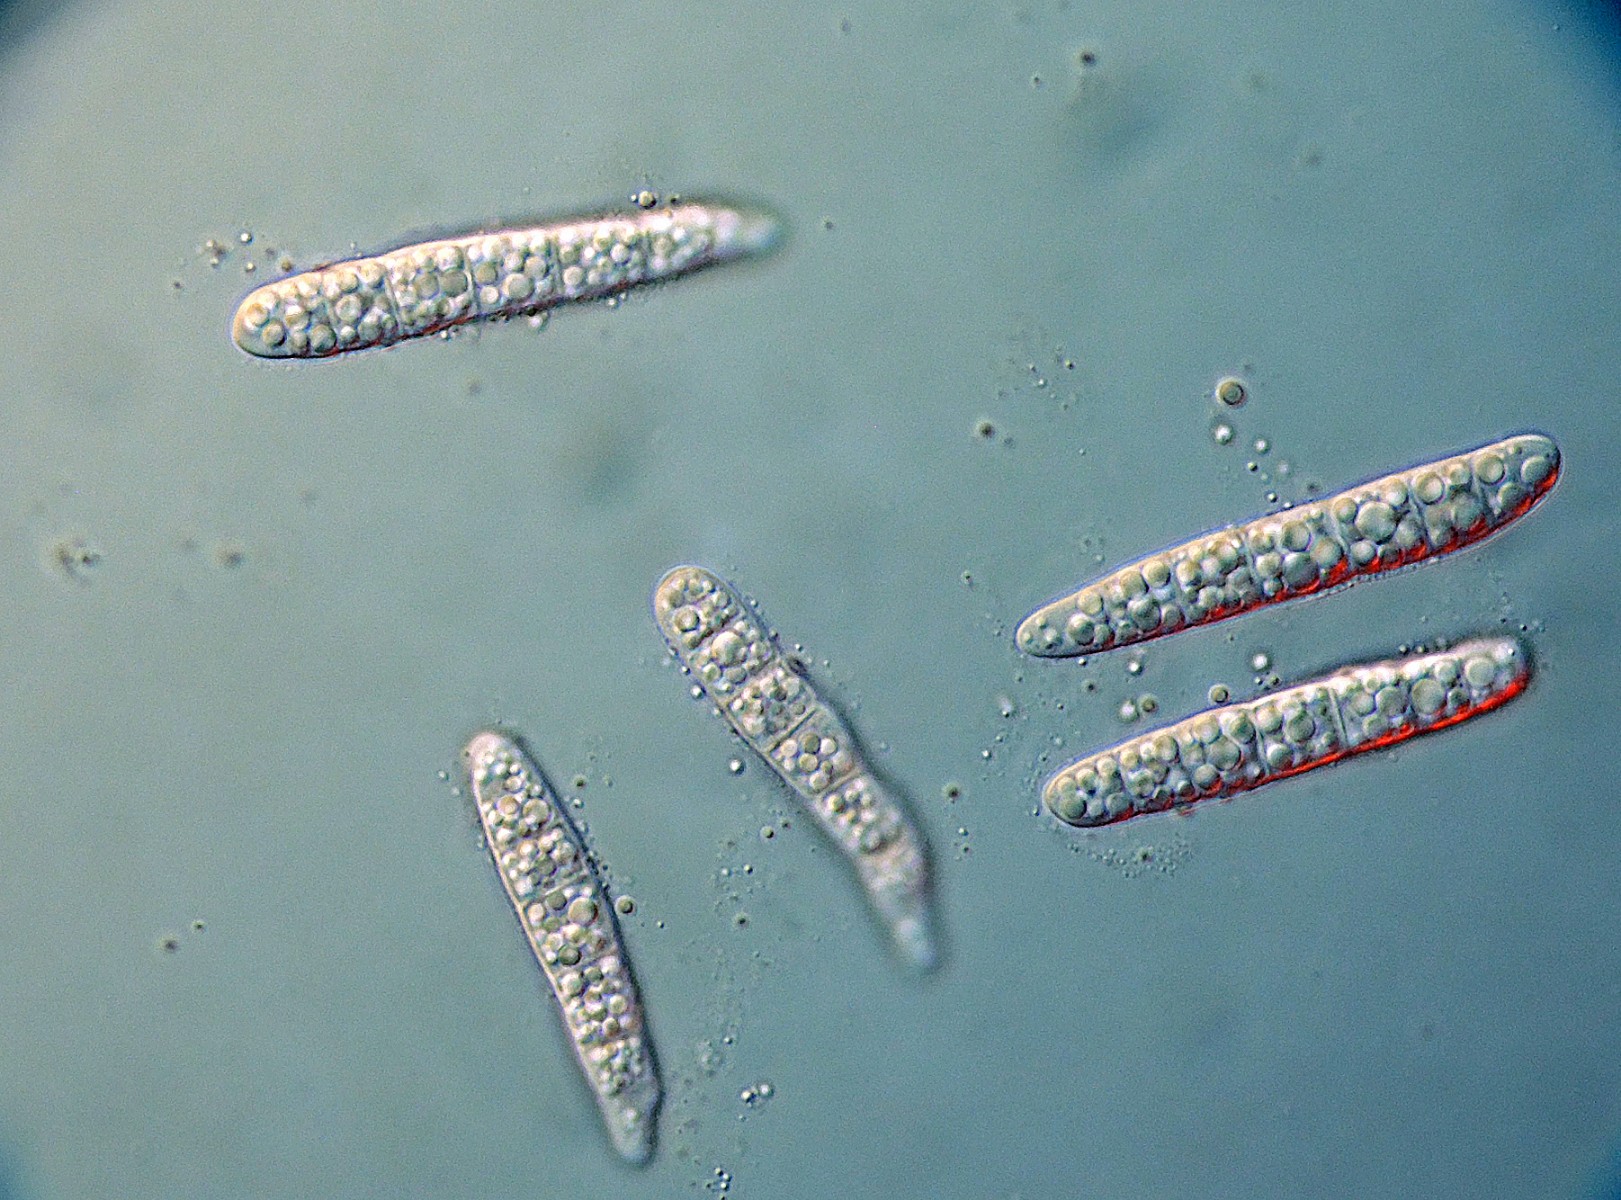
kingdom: Fungi
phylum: Ascomycota
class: Dothideomycetes
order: Pleosporales
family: Phaeosphaeriaceae
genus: Stagonospora
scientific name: Stagonospora caricis
